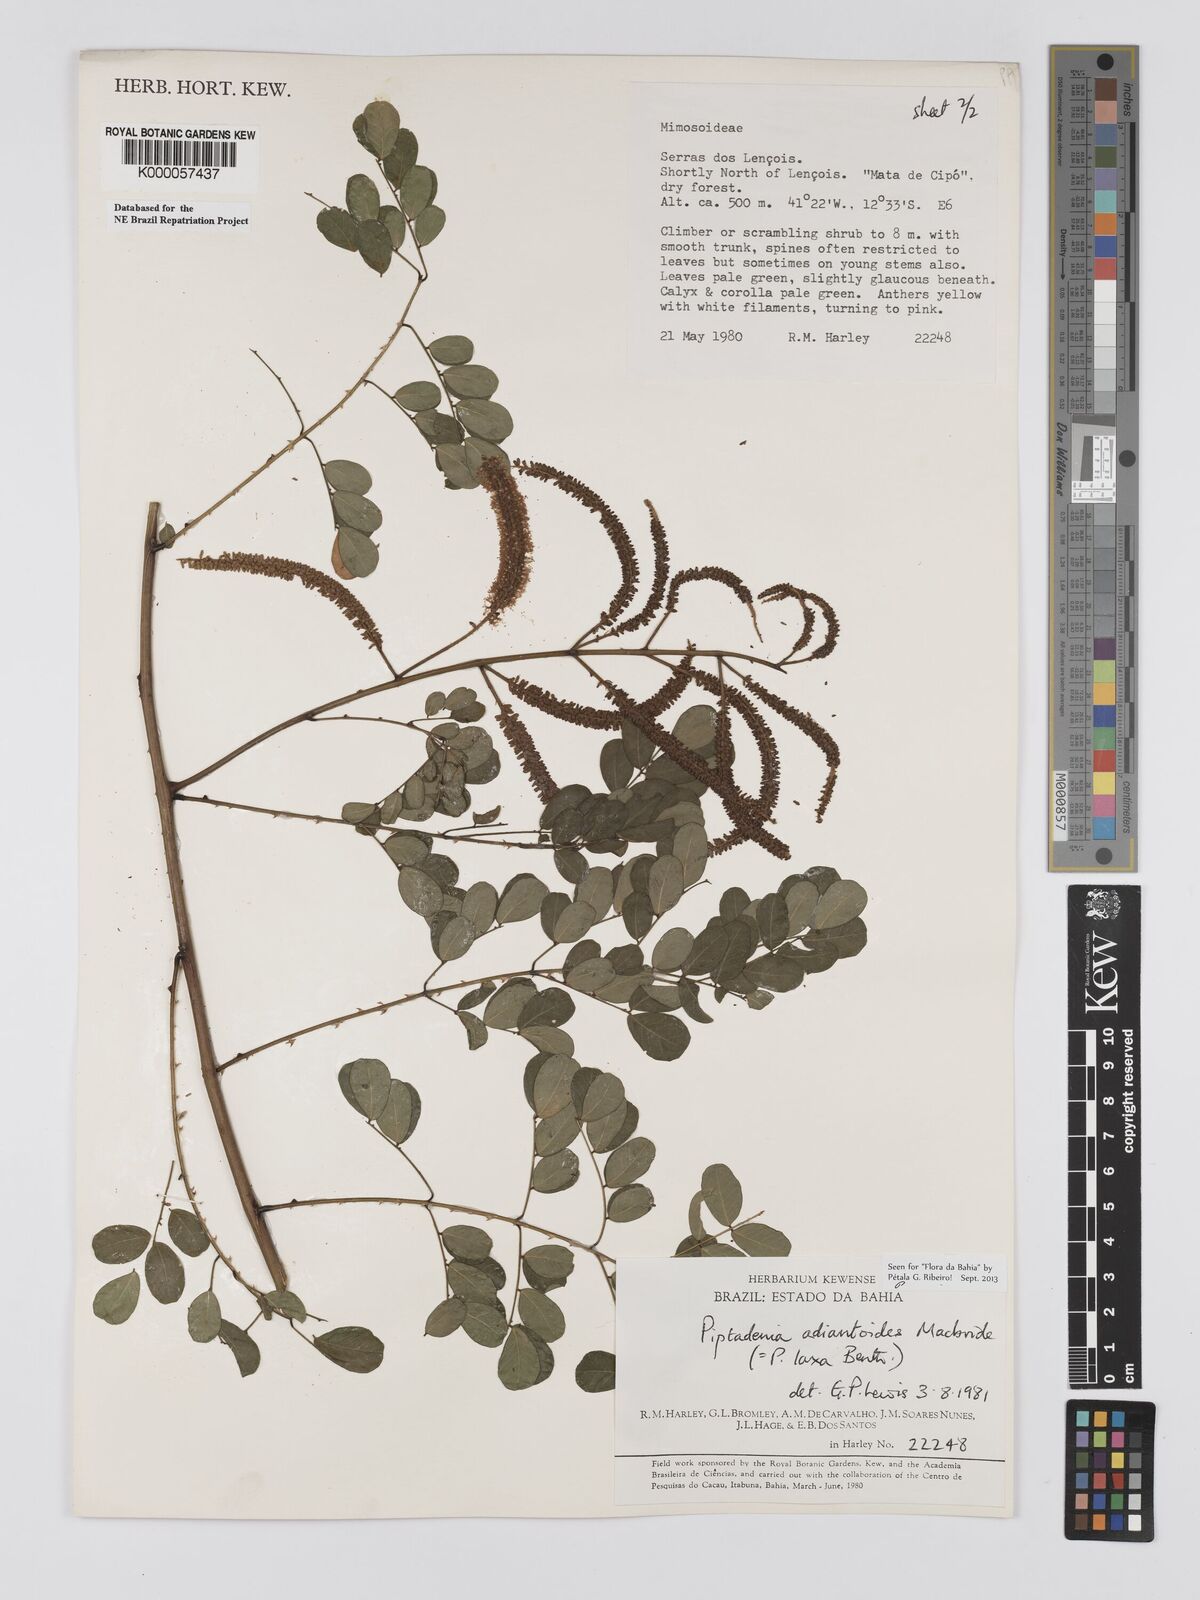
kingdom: Plantae
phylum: Tracheophyta
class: Magnoliopsida
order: Fabales
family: Fabaceae
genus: Piptadenia
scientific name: Piptadenia adiantoides
